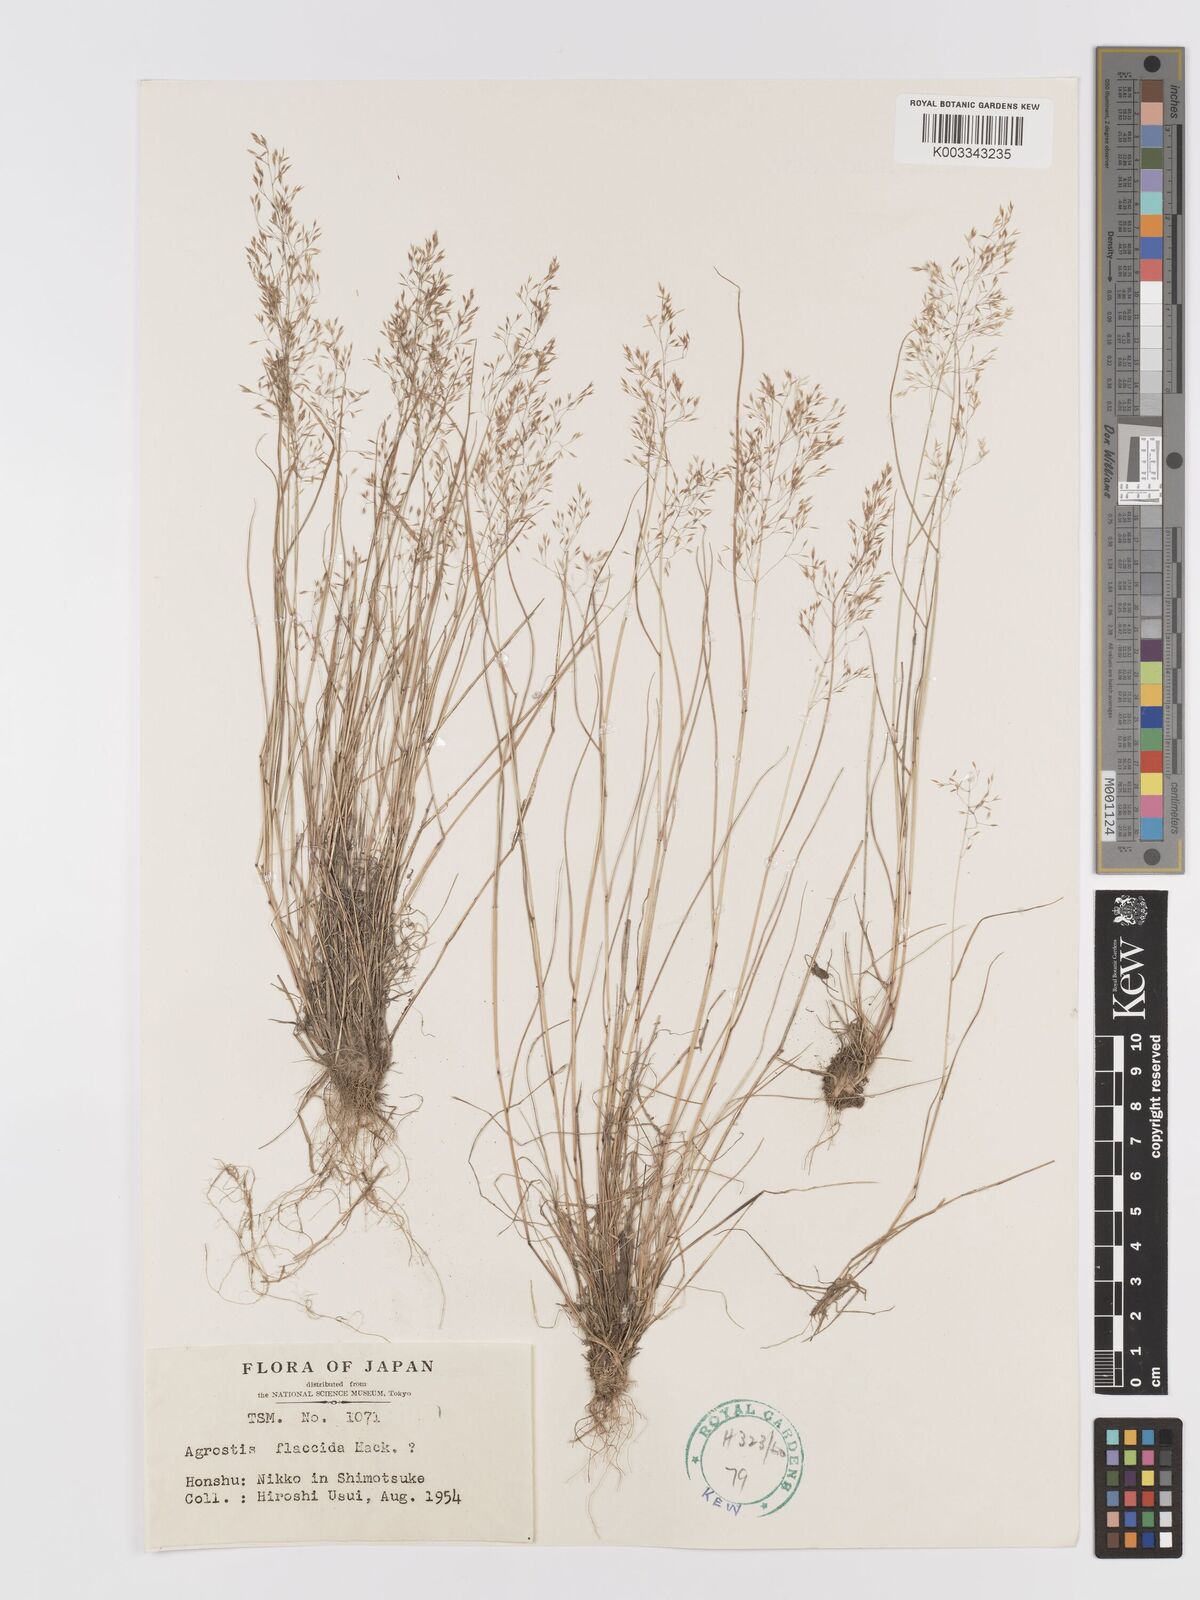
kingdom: Plantae
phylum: Tracheophyta
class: Liliopsida
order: Poales
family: Poaceae
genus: Agrostis
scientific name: Agrostis flaccida
